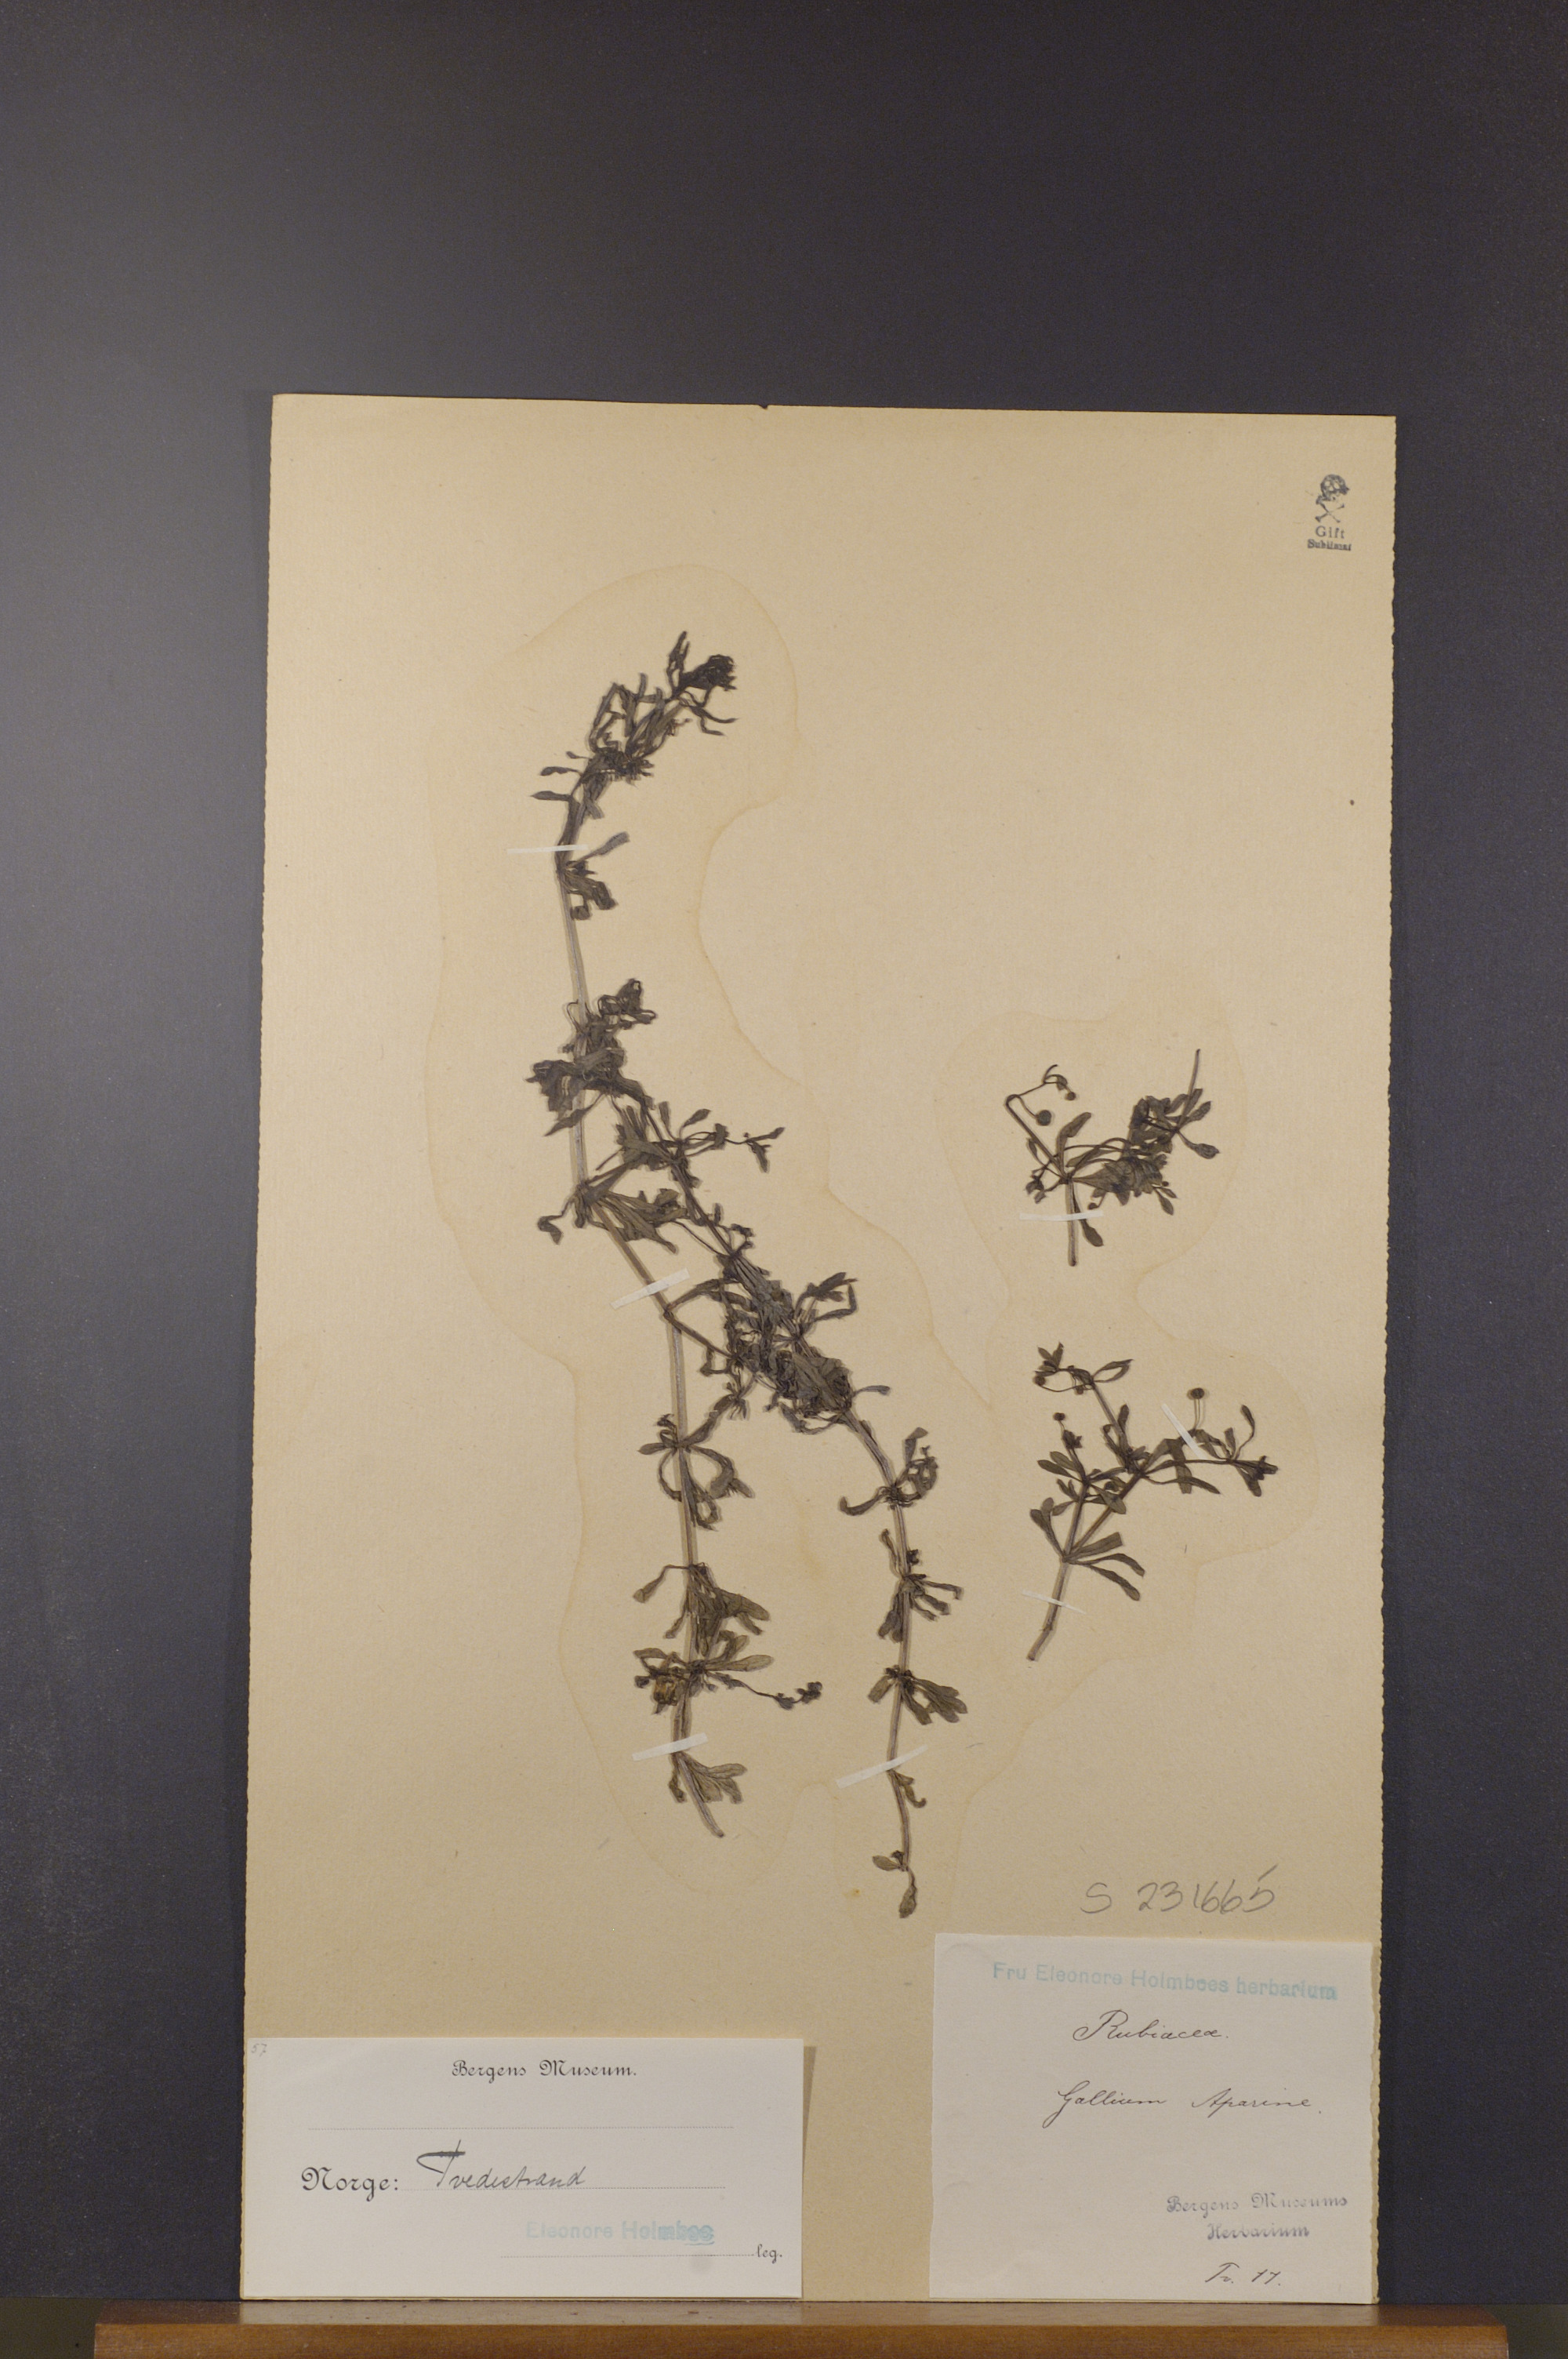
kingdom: Plantae
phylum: Tracheophyta
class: Magnoliopsida
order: Gentianales
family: Rubiaceae
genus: Galium
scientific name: Galium aparine
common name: Cleavers
